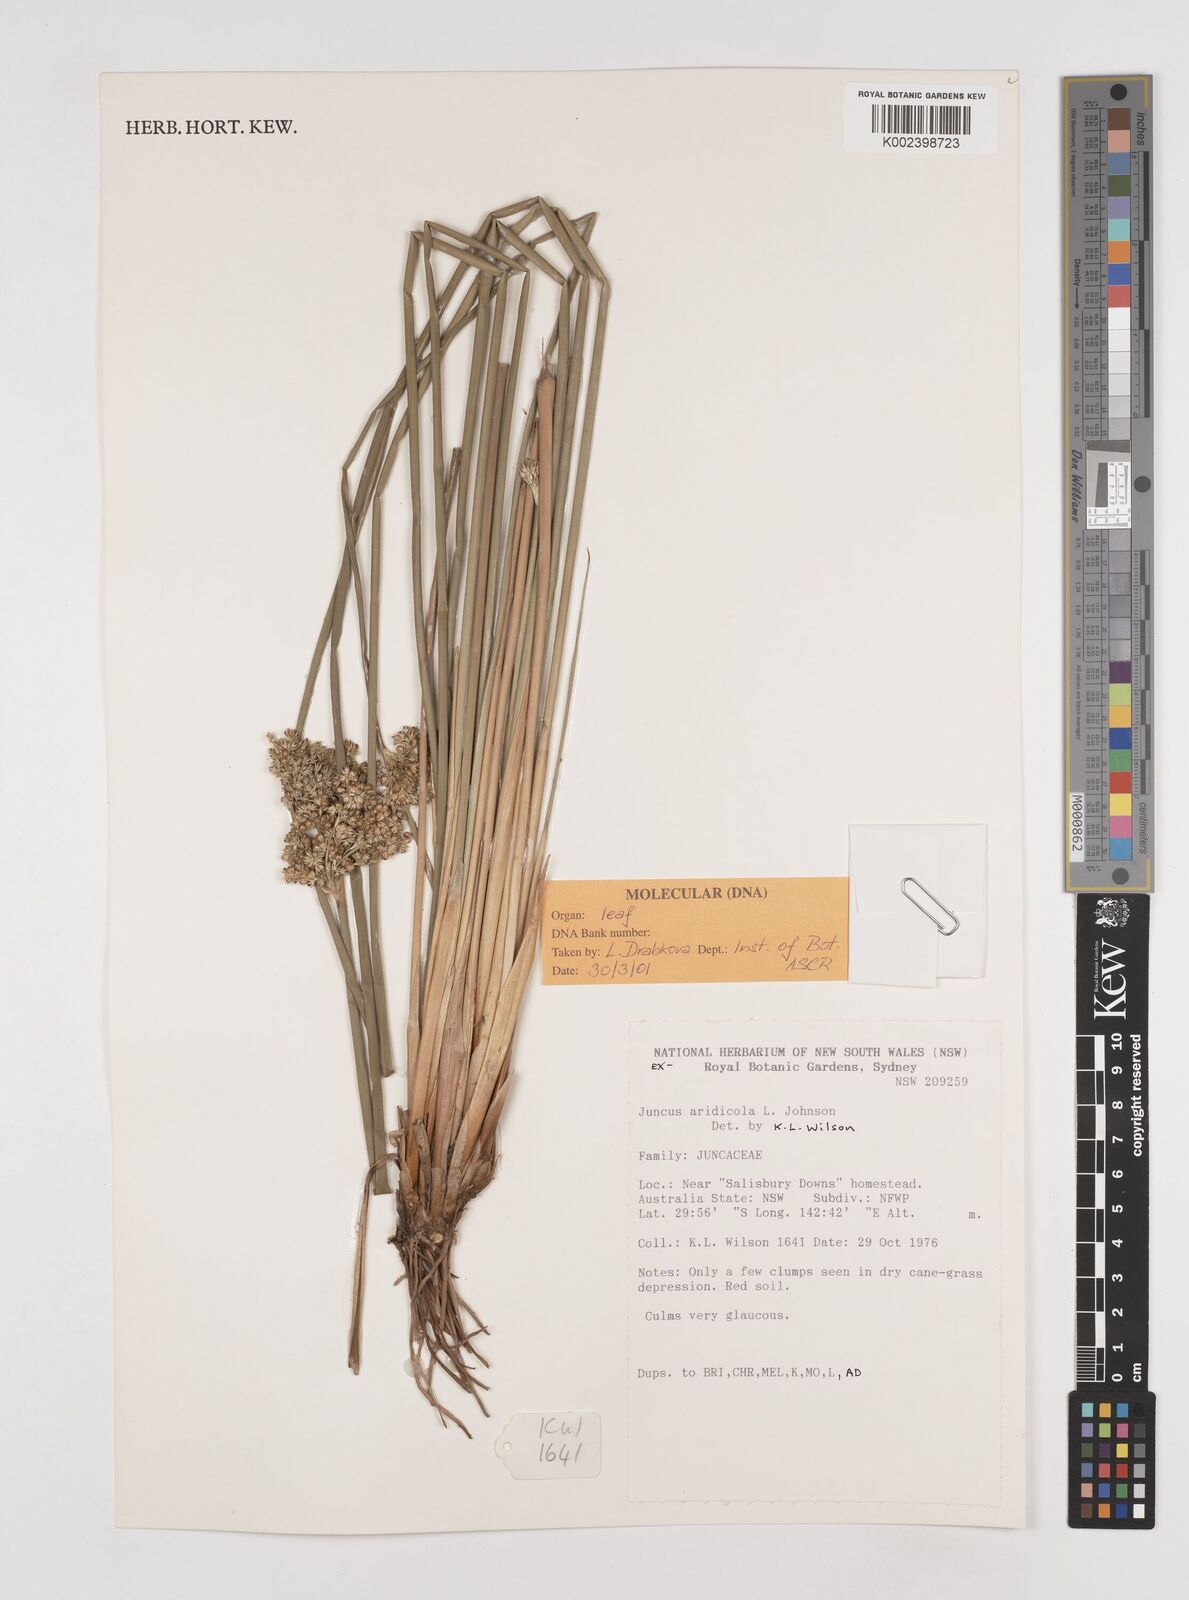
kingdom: Plantae
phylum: Tracheophyta
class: Liliopsida
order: Poales
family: Juncaceae
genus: Juncus
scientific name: Juncus aridicola
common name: Tussock rush
